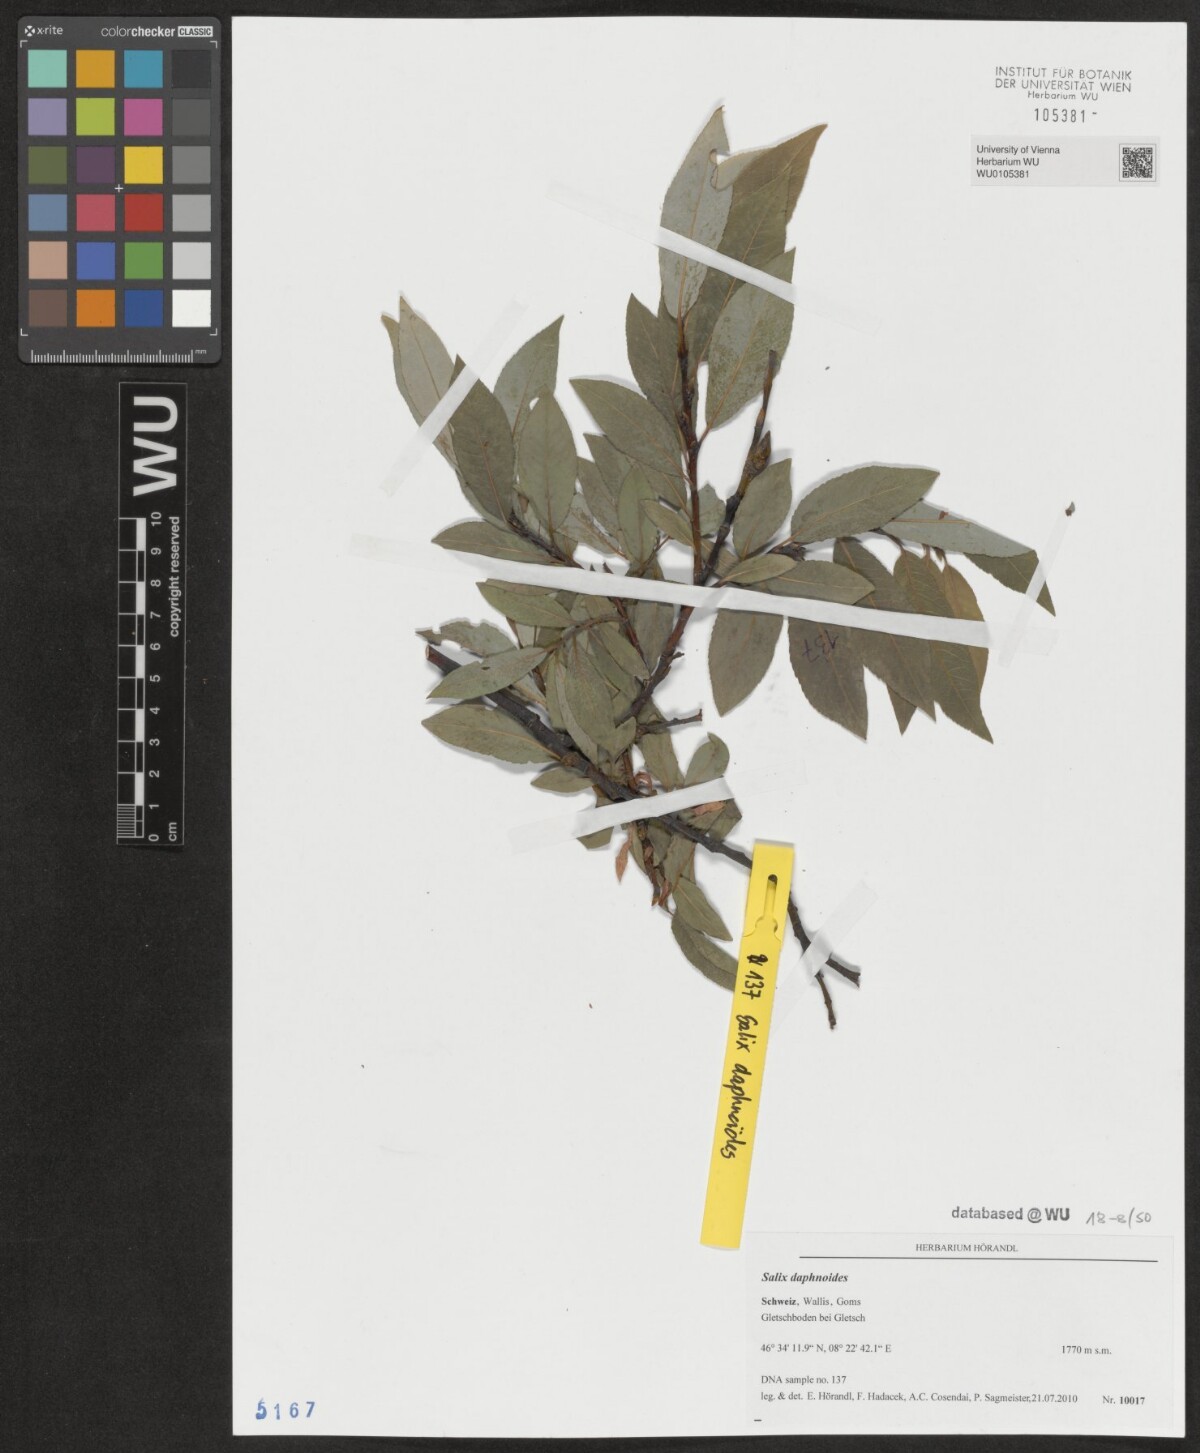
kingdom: Plantae
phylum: Tracheophyta
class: Magnoliopsida
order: Malpighiales
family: Salicaceae
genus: Salix
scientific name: Salix daphnoides
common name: European violet-willow
